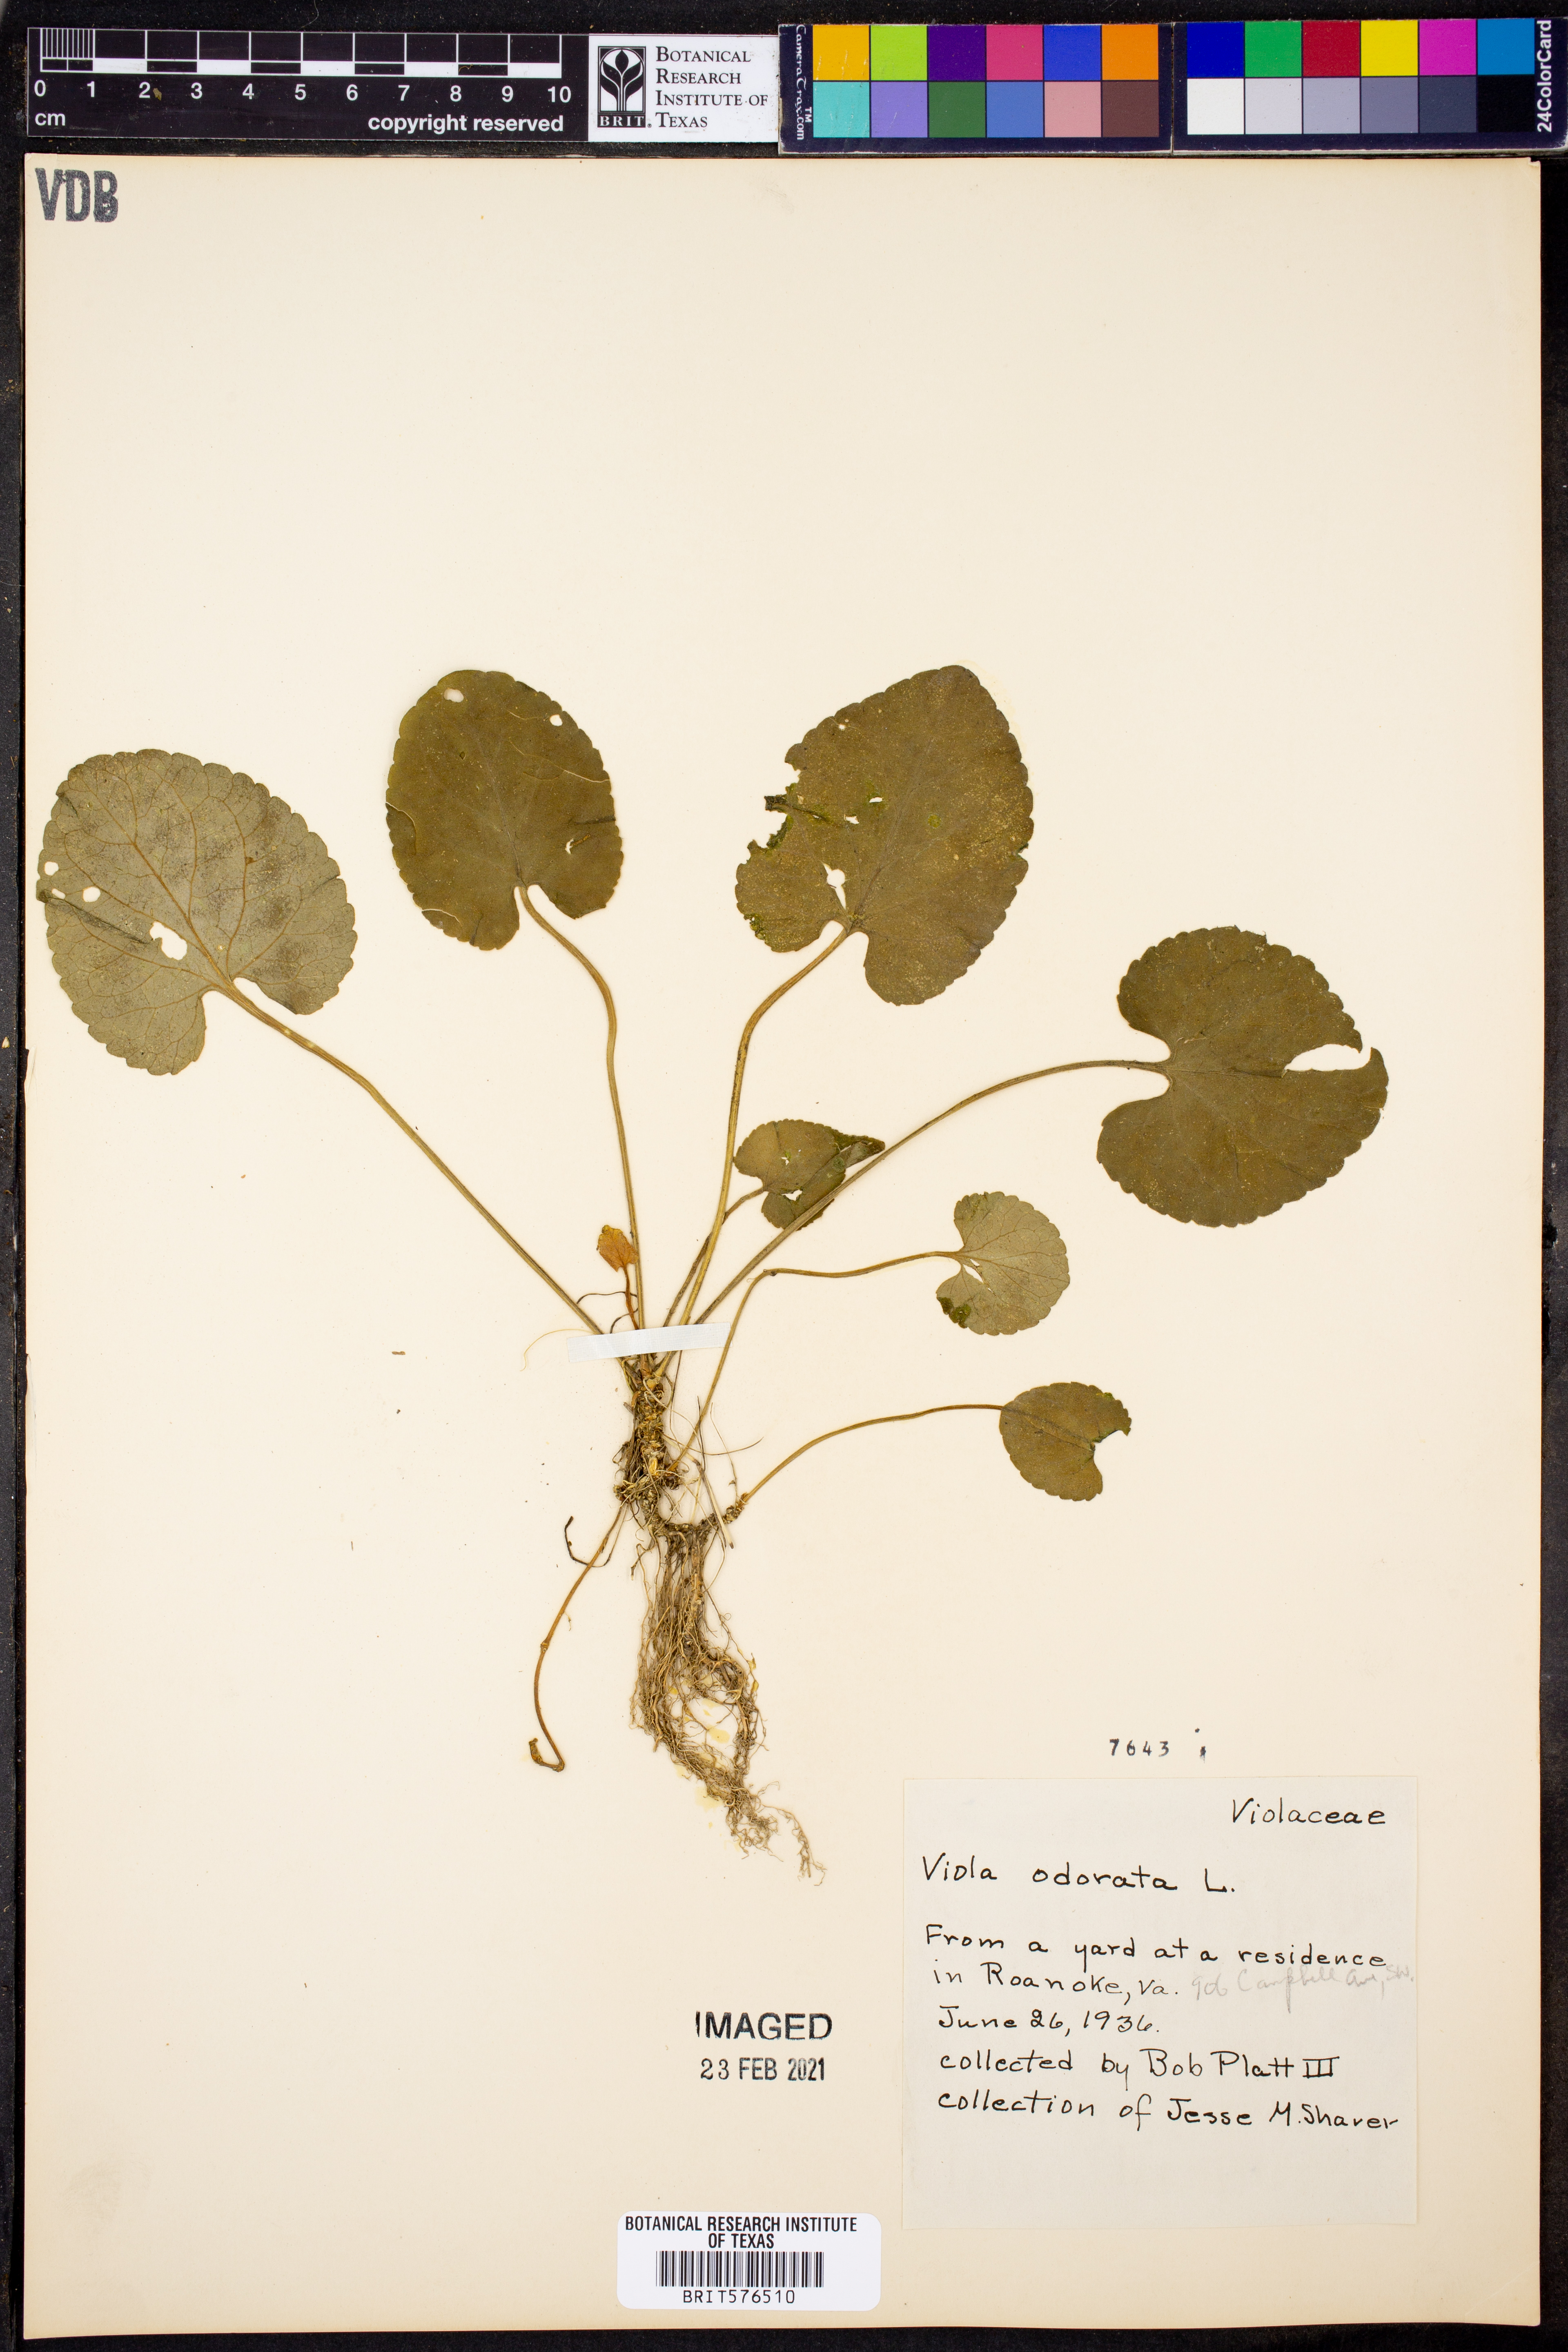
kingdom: Plantae
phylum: Tracheophyta
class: Magnoliopsida
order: Malpighiales
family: Violaceae
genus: Viola
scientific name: Viola odorata
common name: Sweet violet
